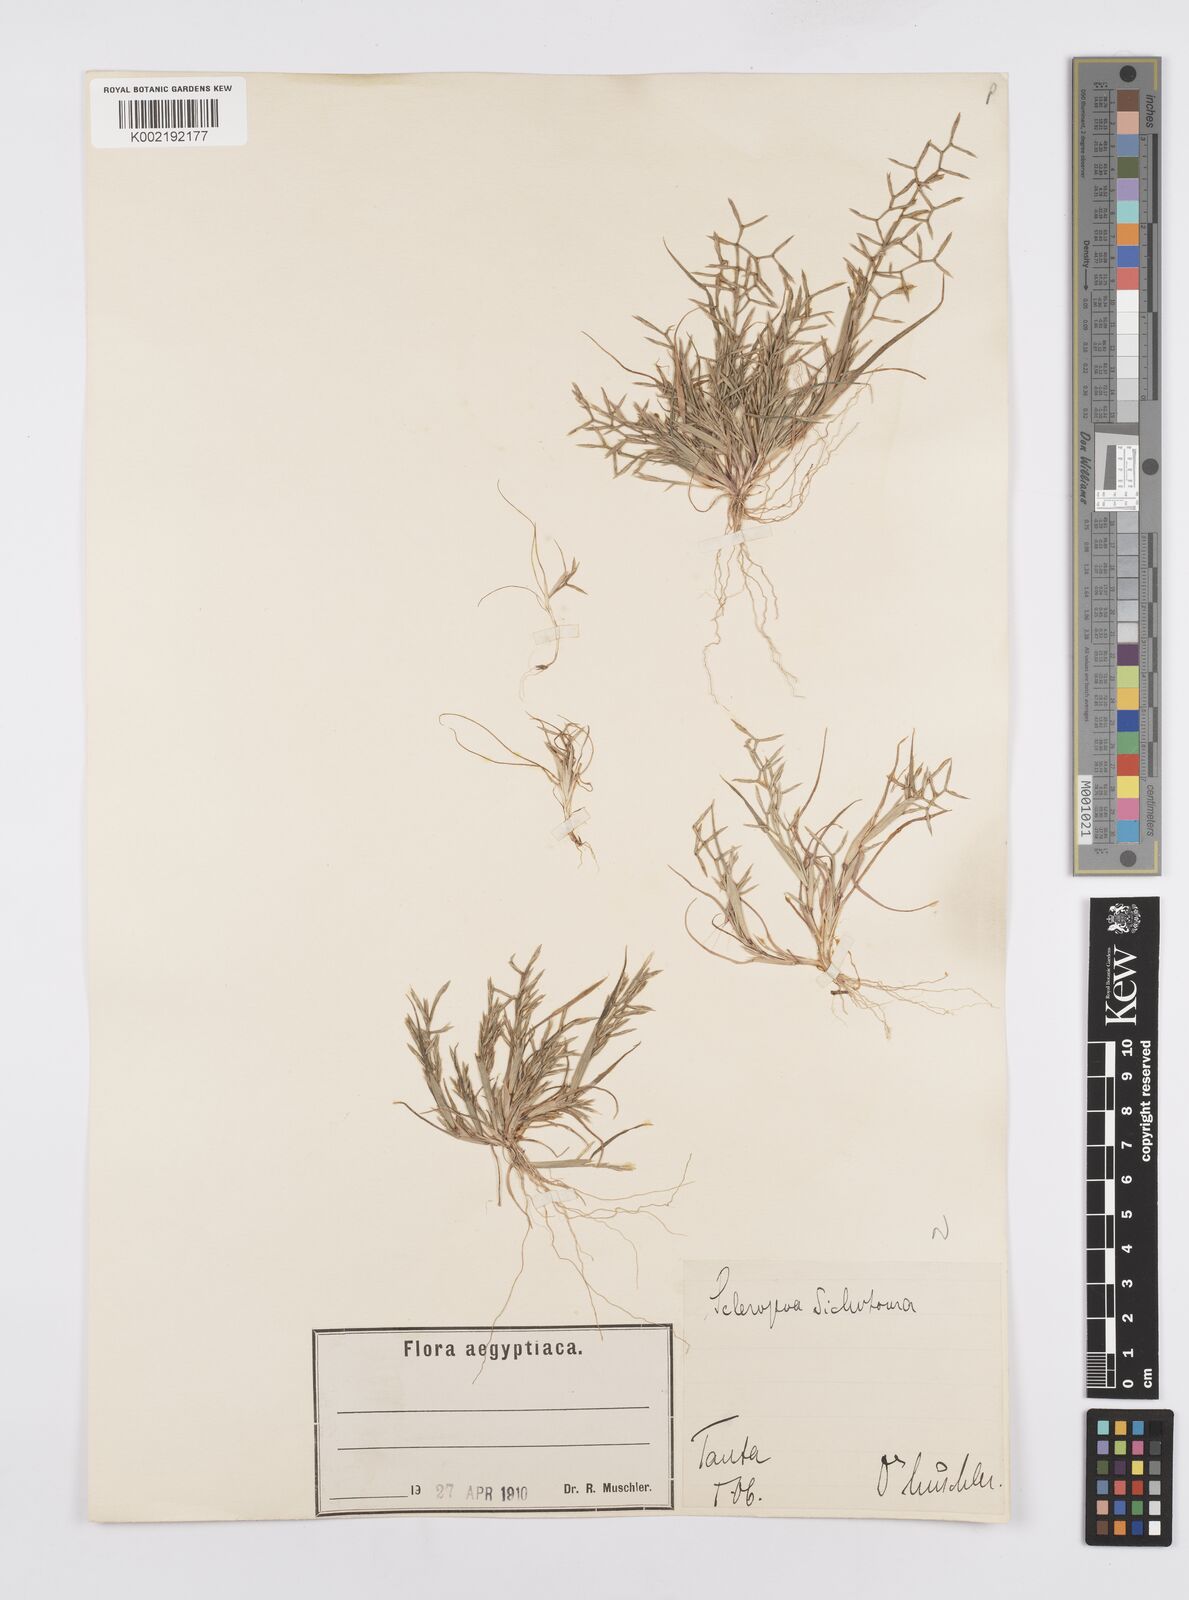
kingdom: Plantae
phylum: Tracheophyta
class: Liliopsida
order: Poales
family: Poaceae
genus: Cutandia
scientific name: Cutandia dichotoma
